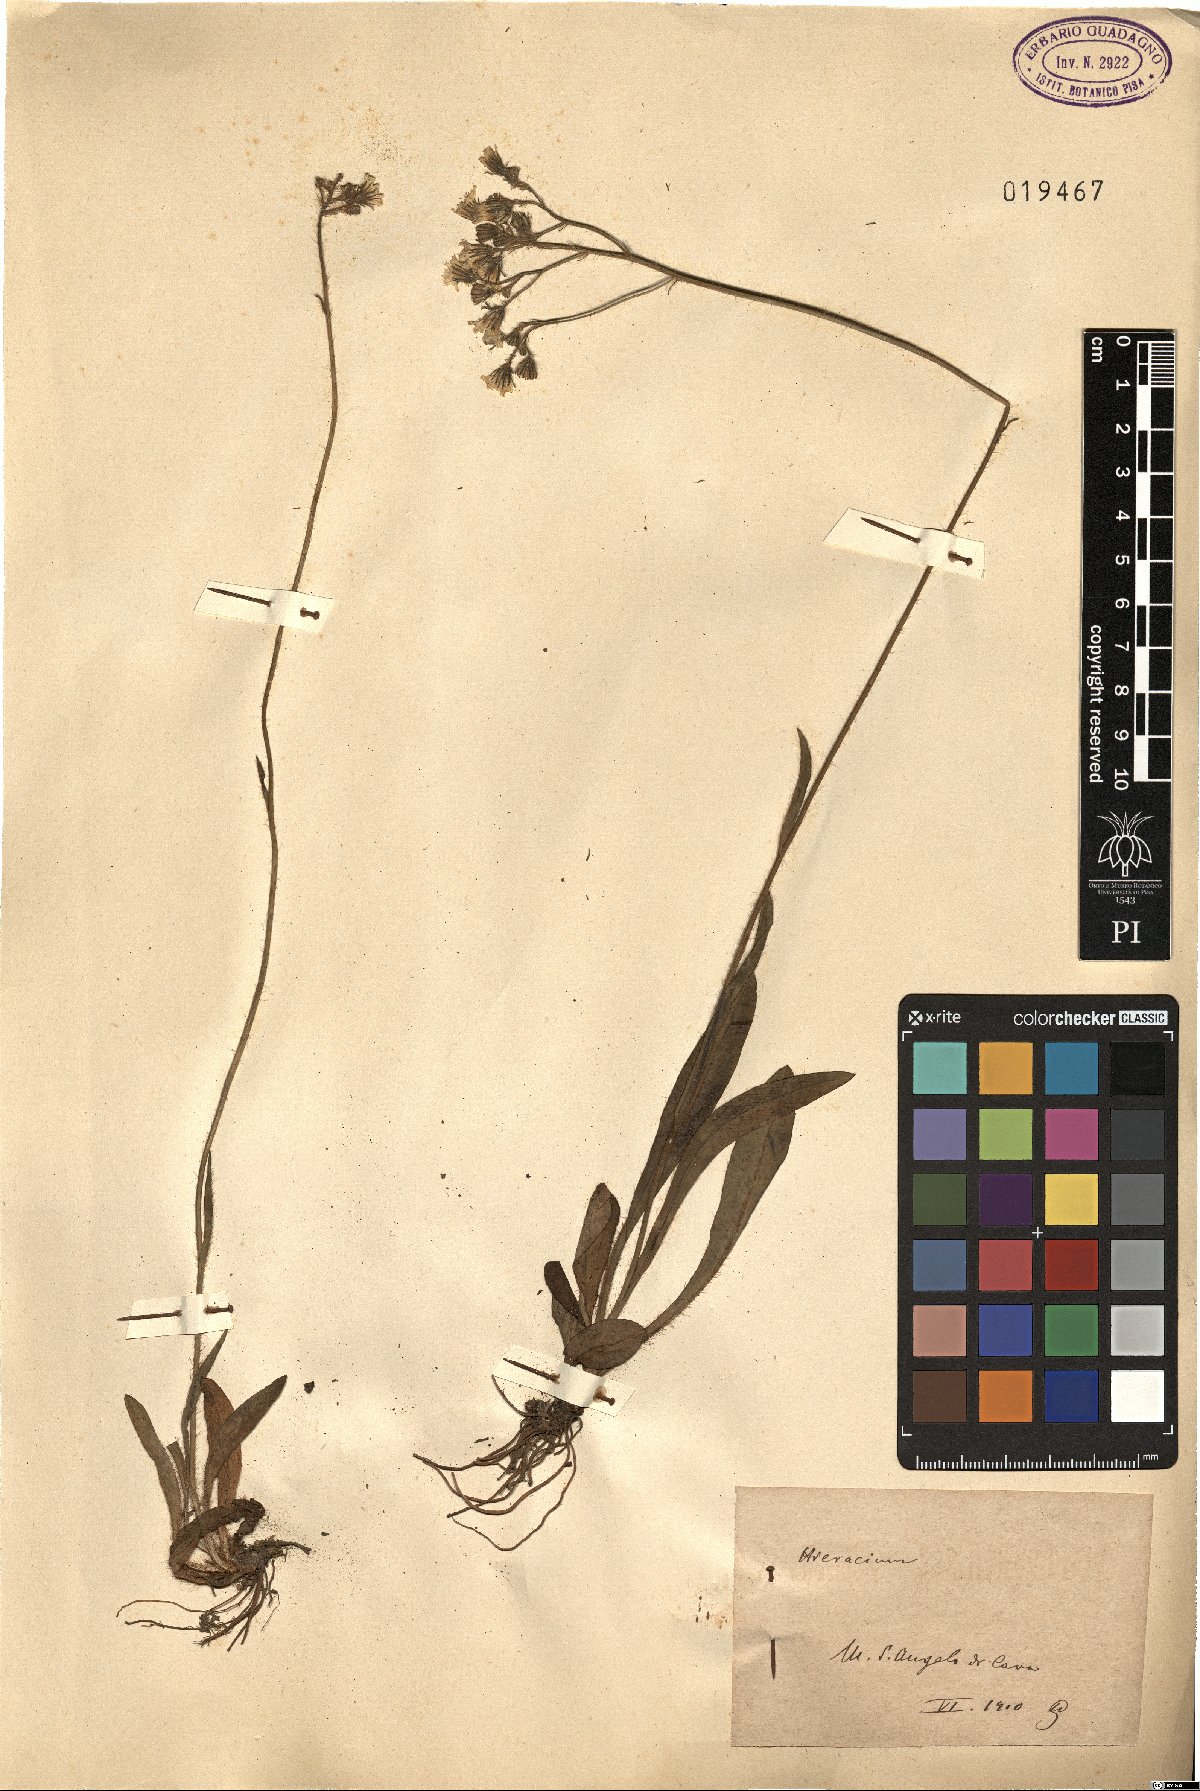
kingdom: Plantae
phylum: Tracheophyta
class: Magnoliopsida
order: Asterales
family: Asteraceae
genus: Hieracium
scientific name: Hieracium
